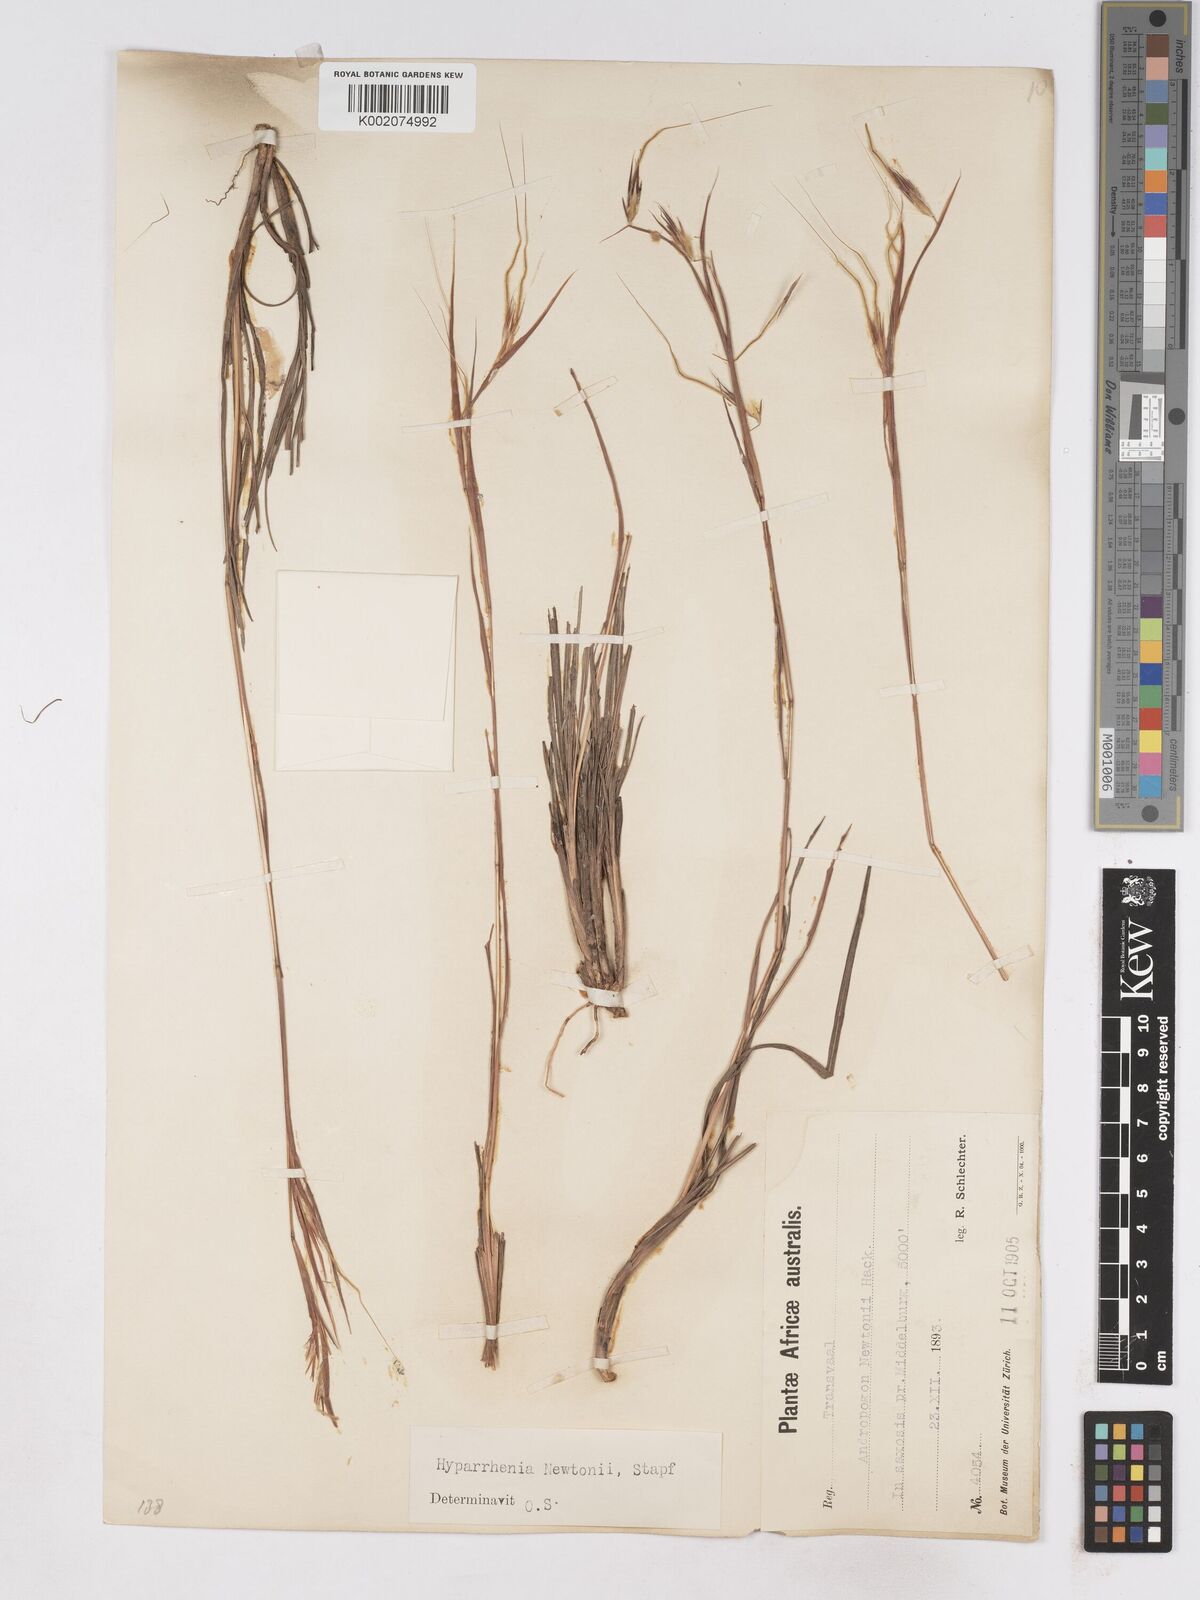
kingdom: Plantae
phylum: Tracheophyta
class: Liliopsida
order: Poales
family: Poaceae
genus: Hyparrhenia
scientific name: Hyparrhenia newtonii
